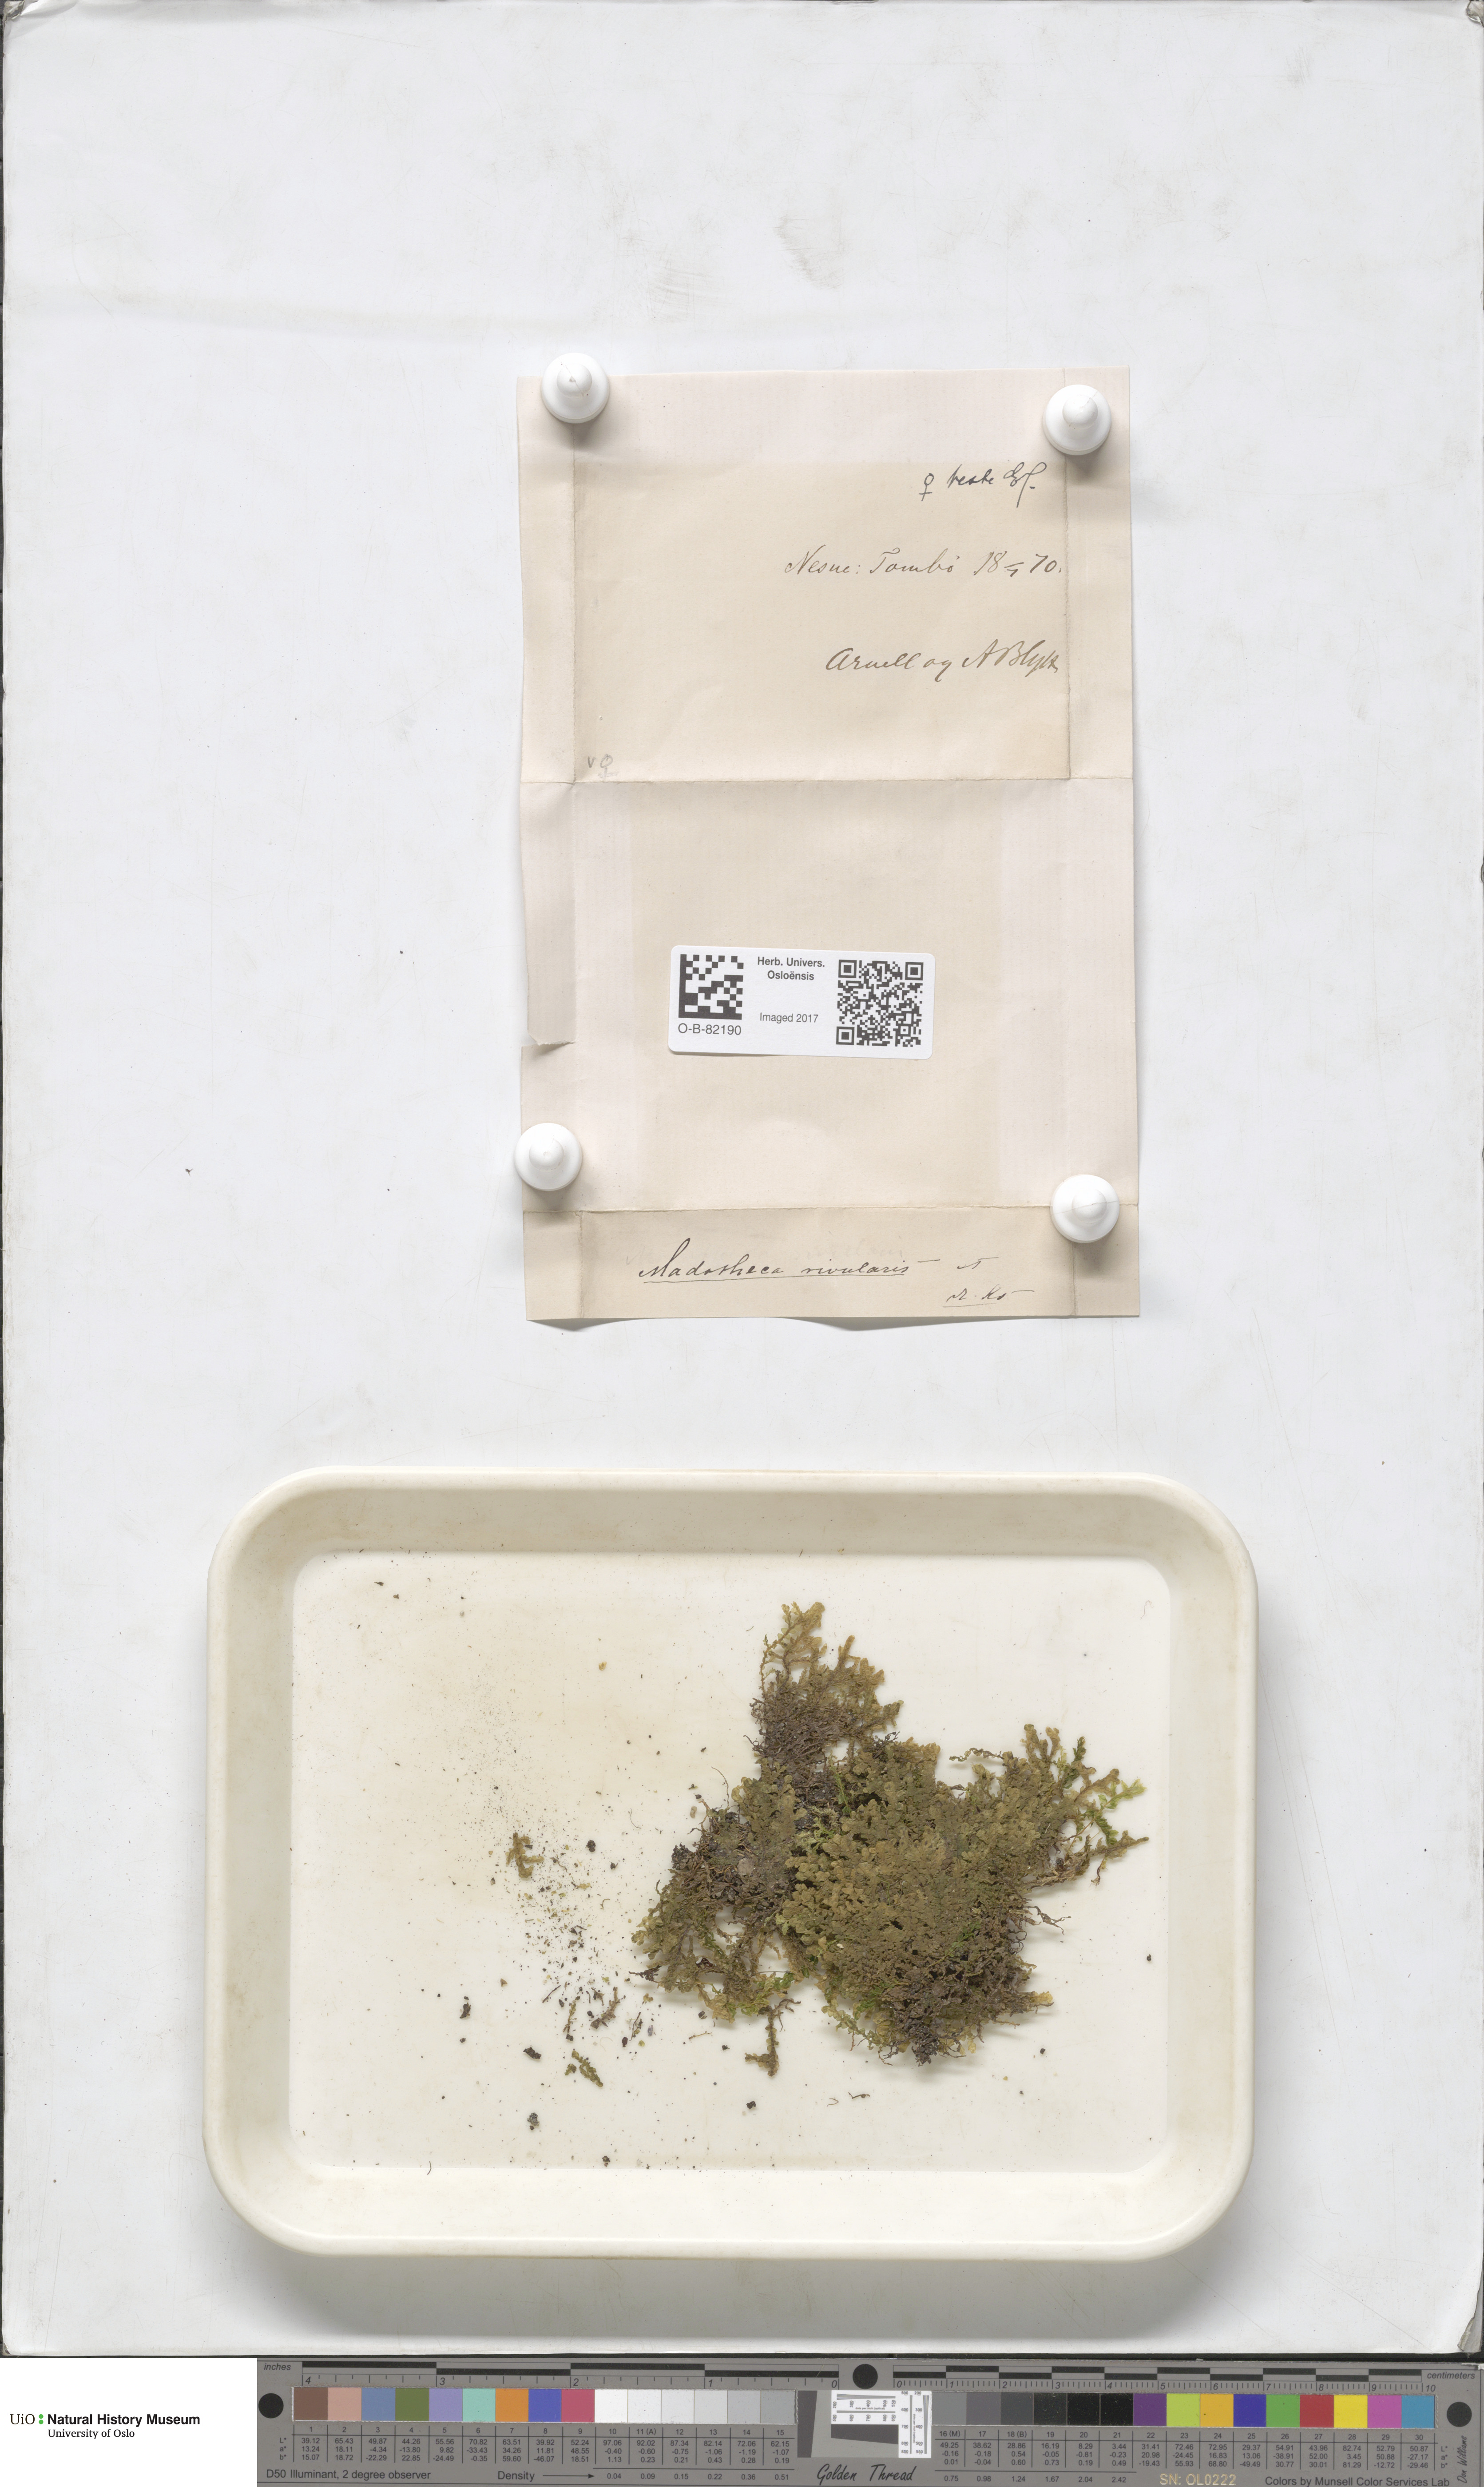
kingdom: Plantae
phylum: Marchantiophyta
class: Jungermanniopsida
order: Porellales
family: Porellaceae
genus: Porella
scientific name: Porella cordaeana
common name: Cliff scalewort
